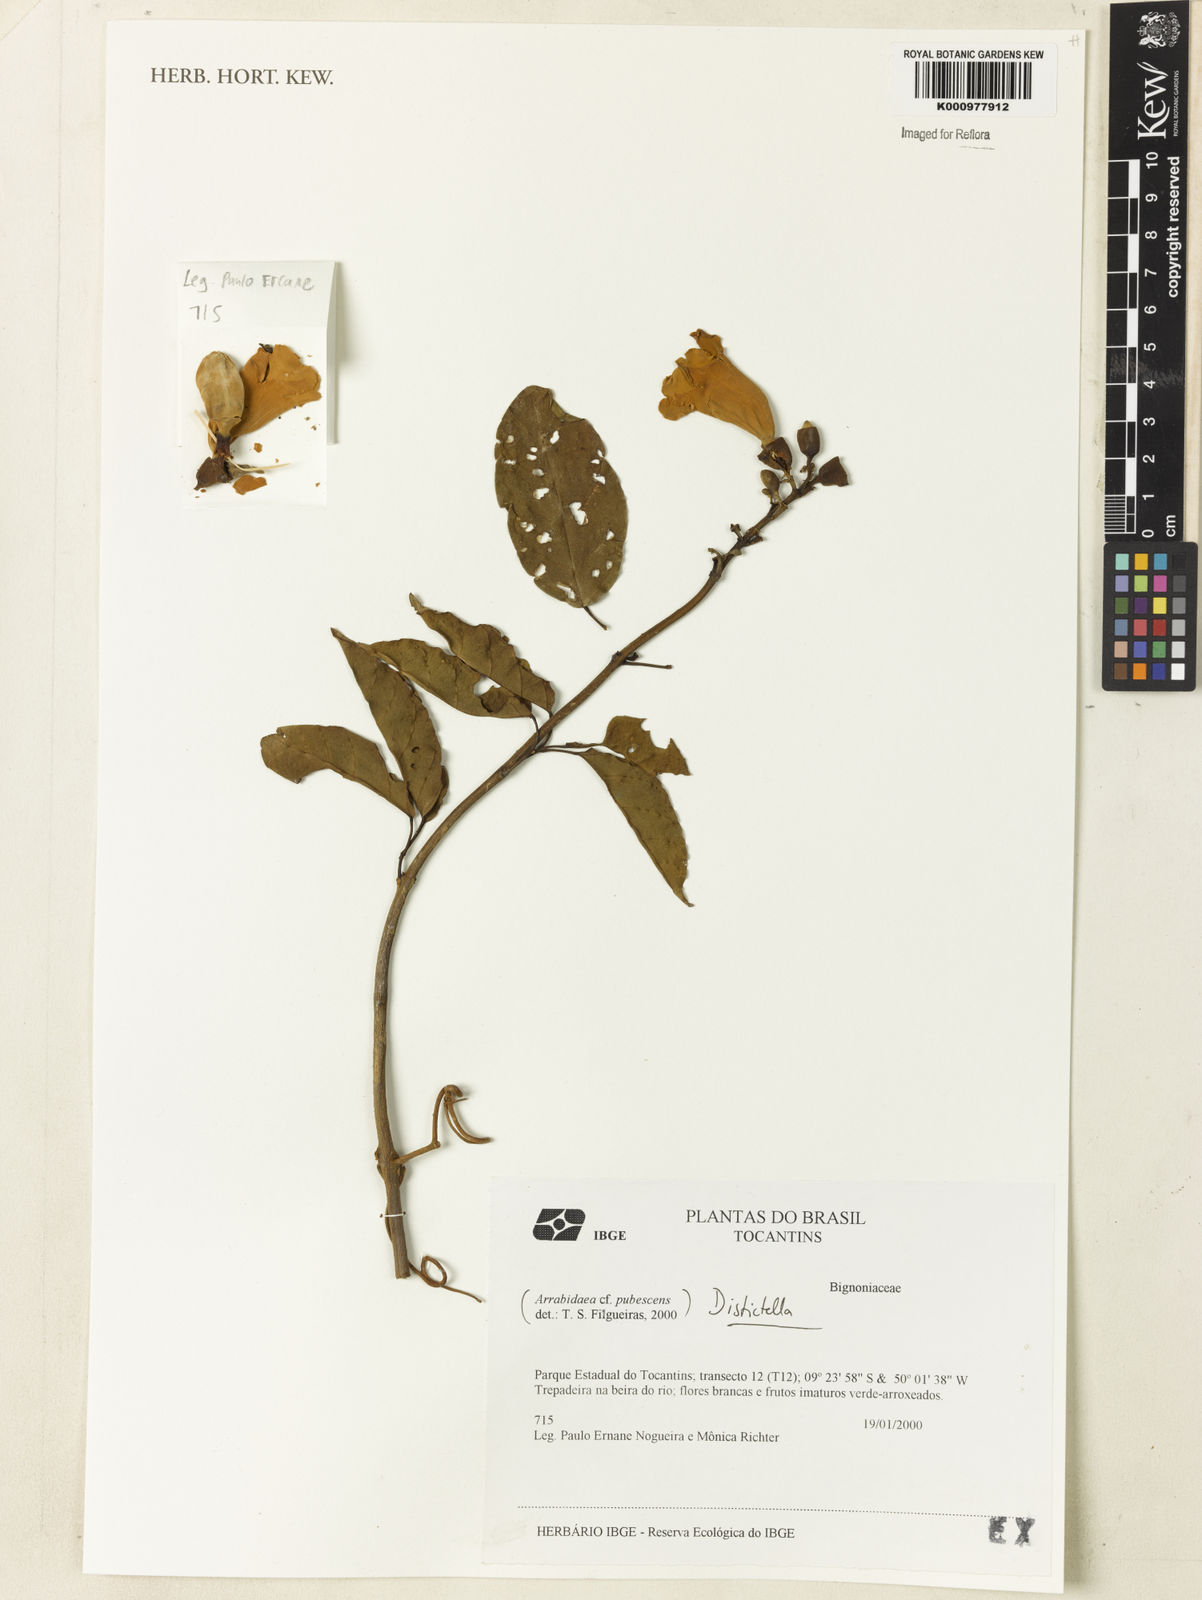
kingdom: Plantae
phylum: Tracheophyta
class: Magnoliopsida
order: Lamiales
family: Bignoniaceae
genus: Amphilophium
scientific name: Amphilophium
